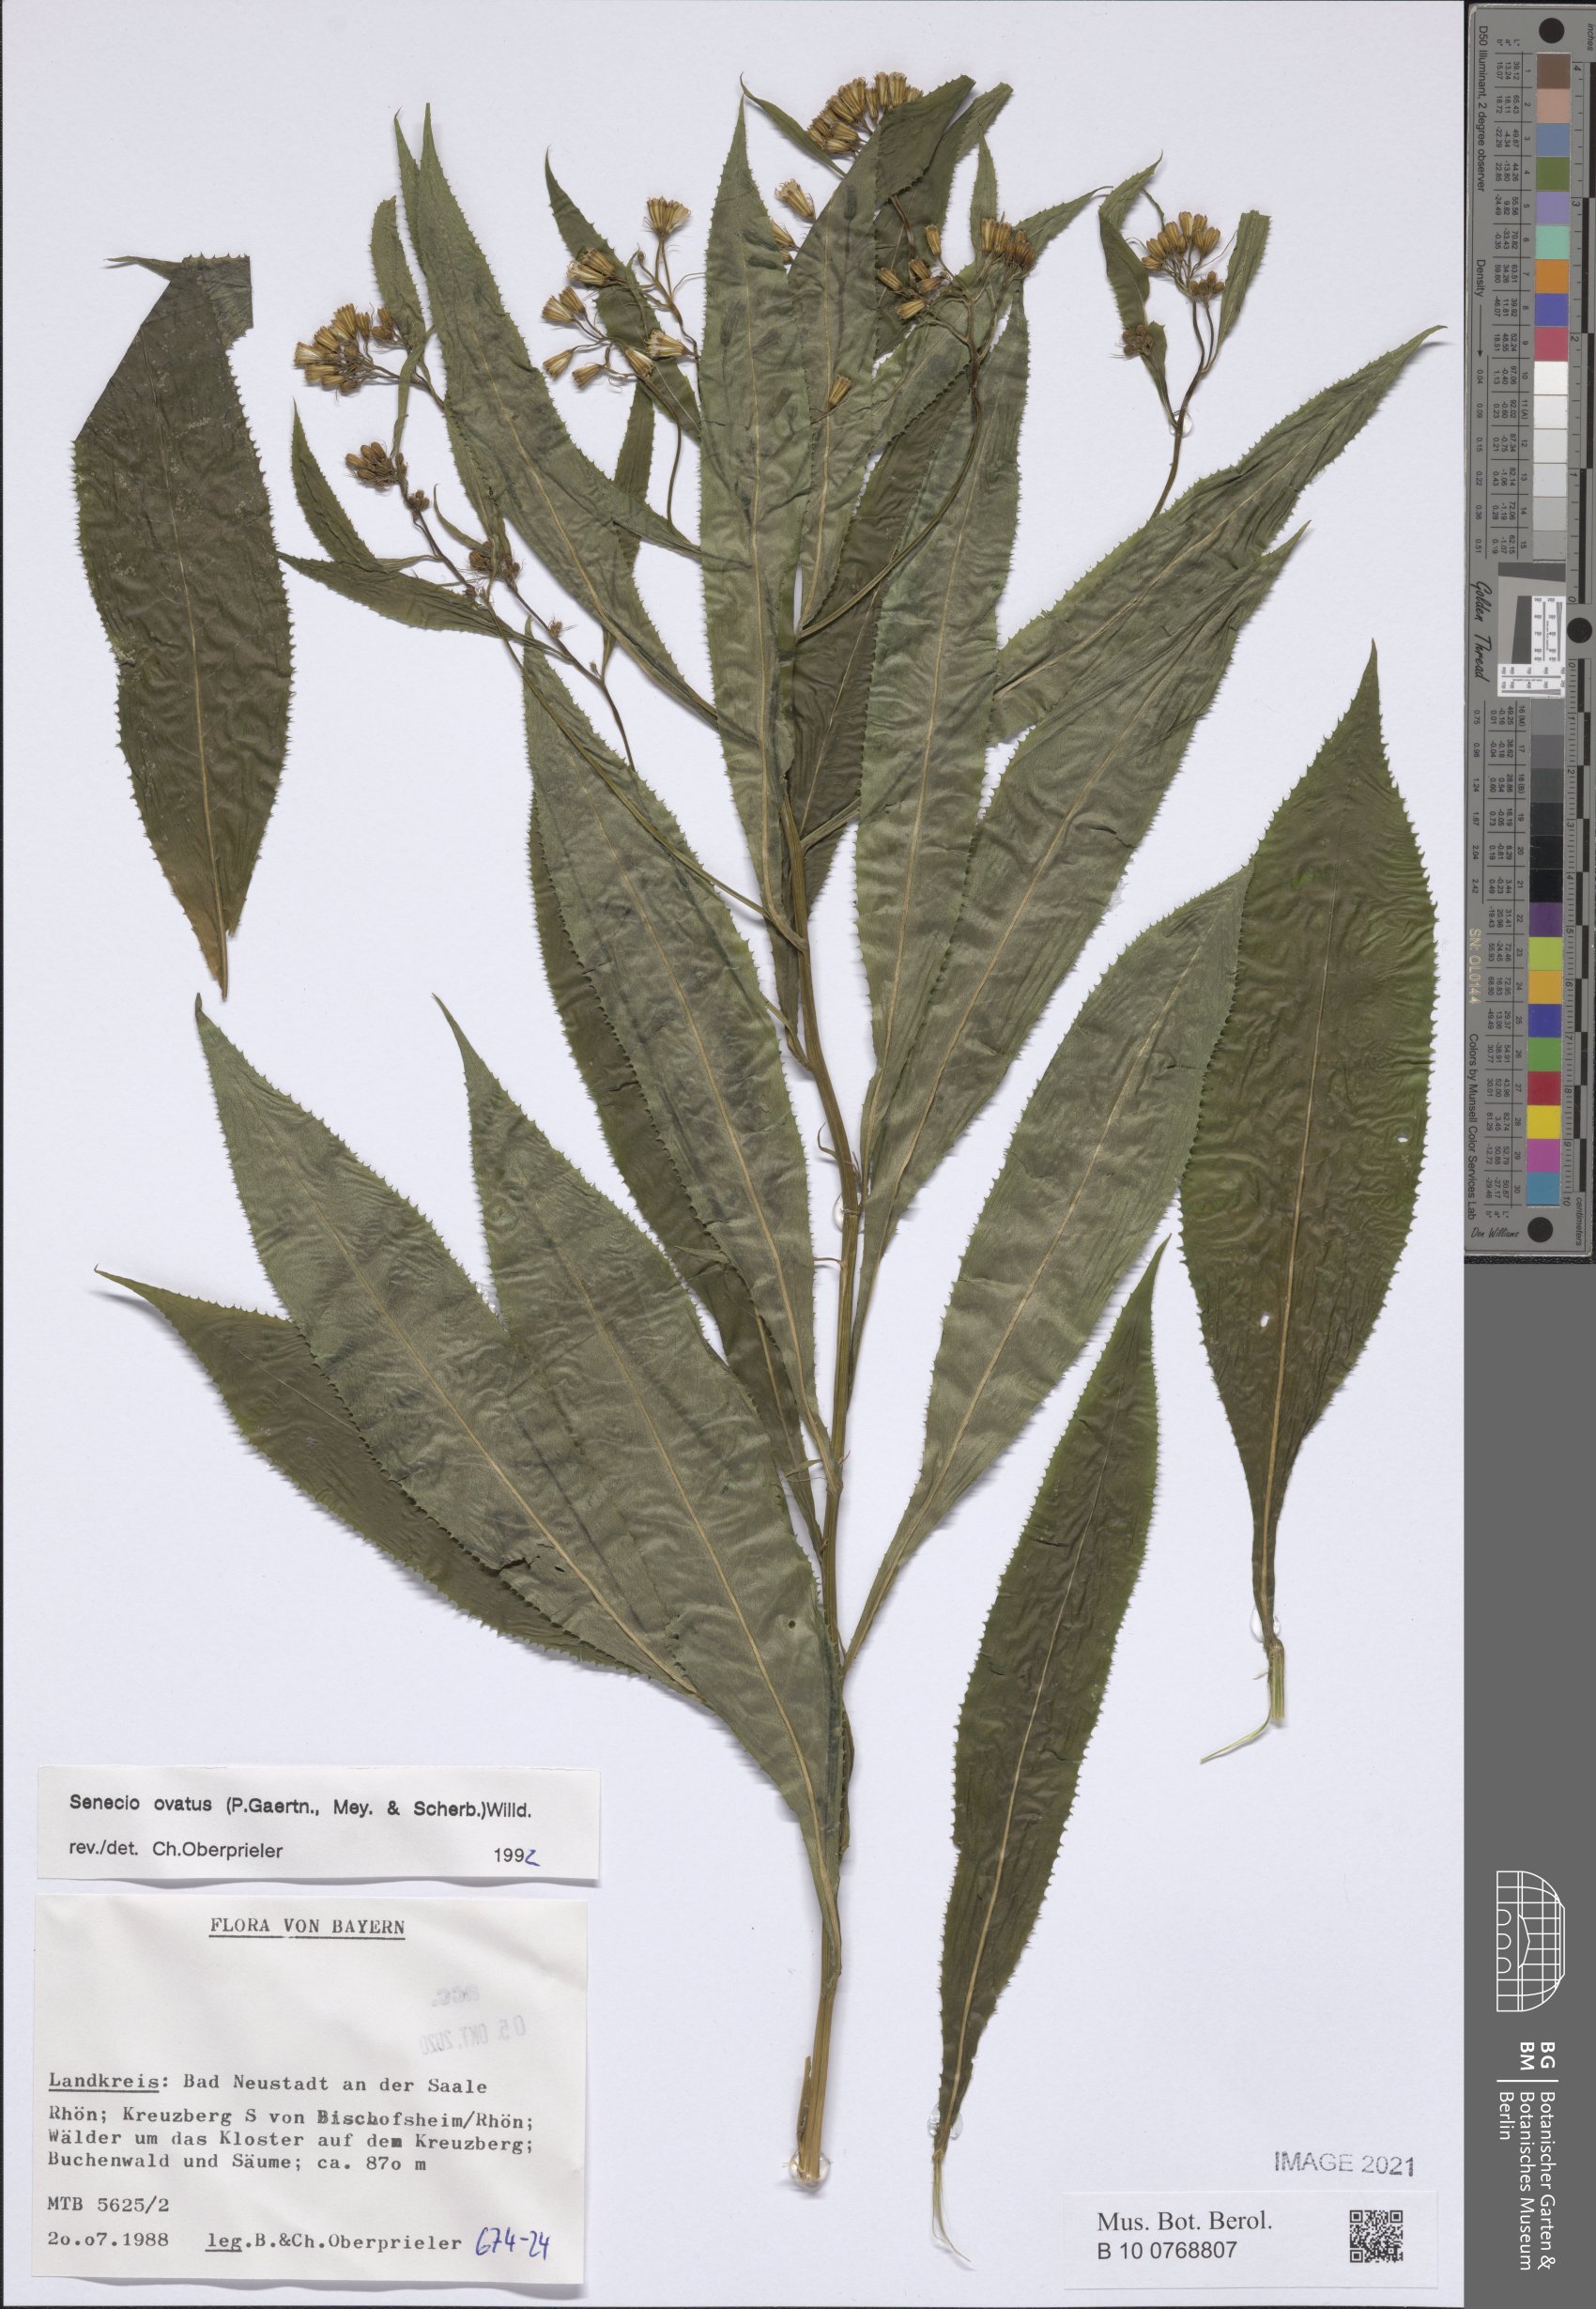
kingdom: Plantae
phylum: Tracheophyta
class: Magnoliopsida
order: Asterales
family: Asteraceae
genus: Senecio
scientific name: Senecio ovatus
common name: Wood ragwort
